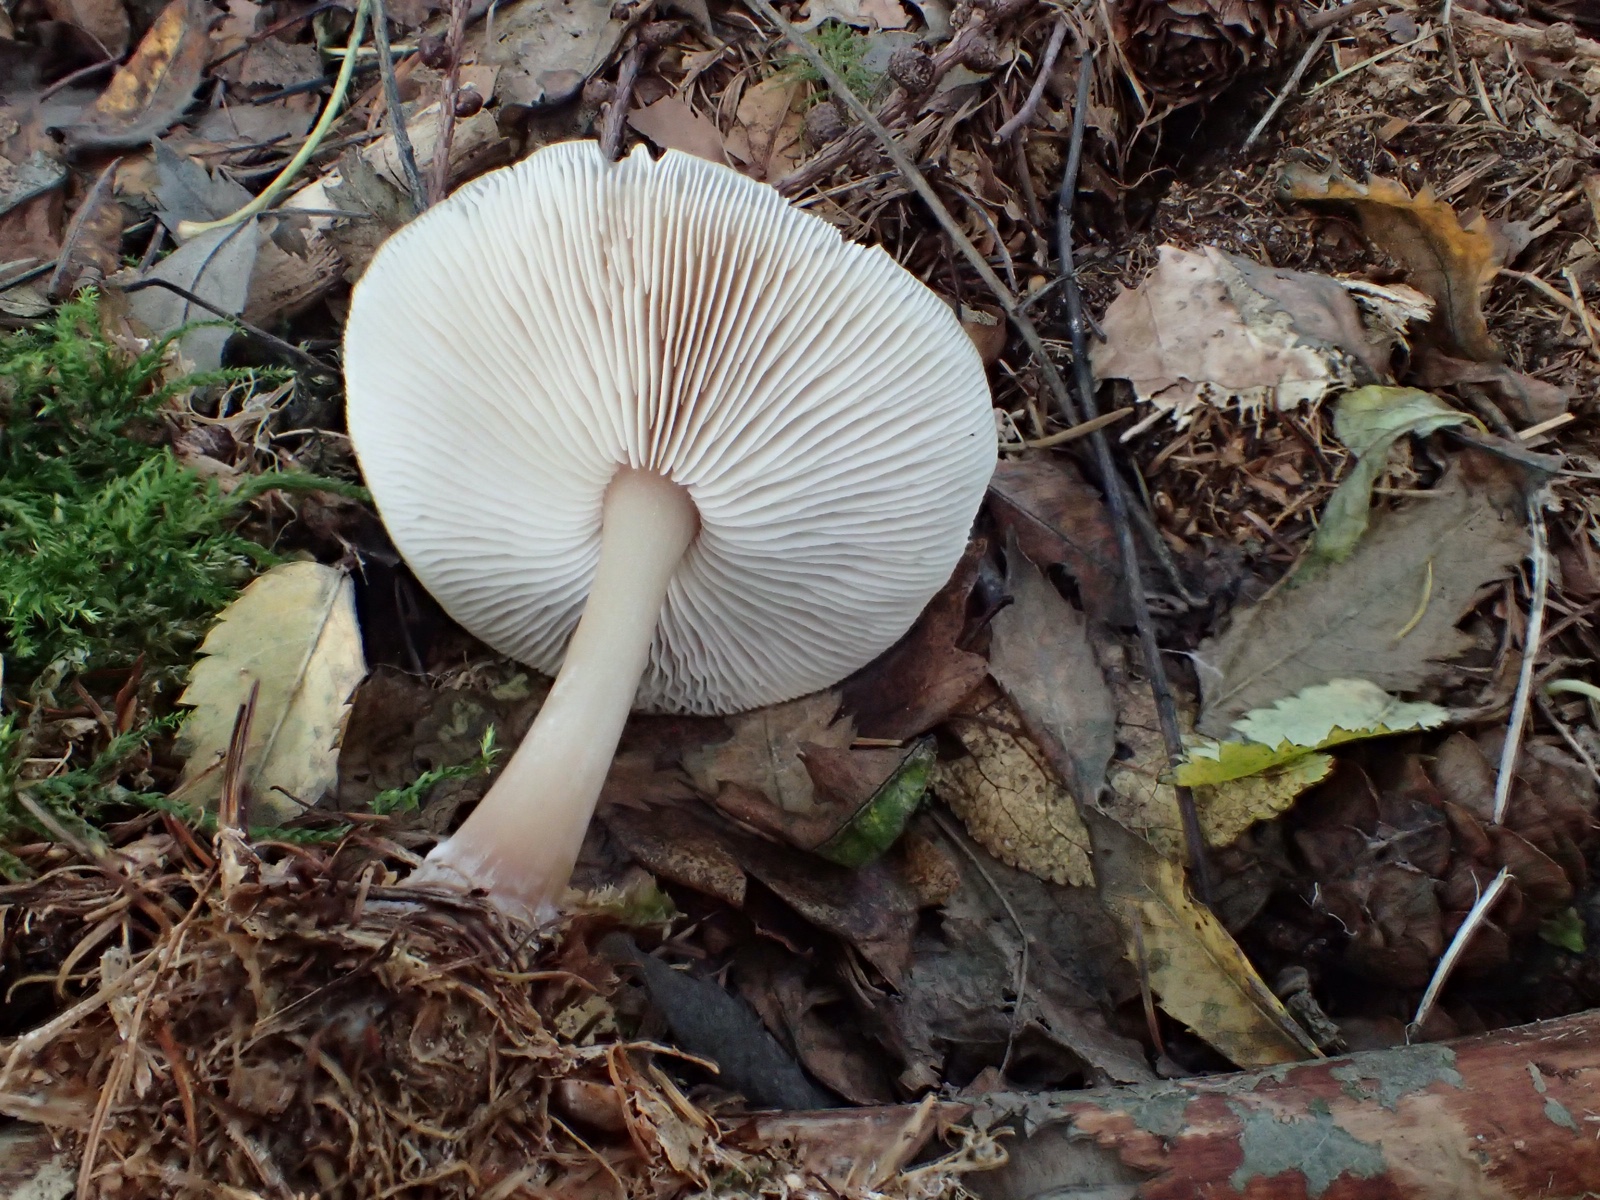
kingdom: Fungi
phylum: Basidiomycota
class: Agaricomycetes
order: Agaricales
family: Omphalotaceae
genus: Rhodocollybia
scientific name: Rhodocollybia asema
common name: horngrå fladhat
